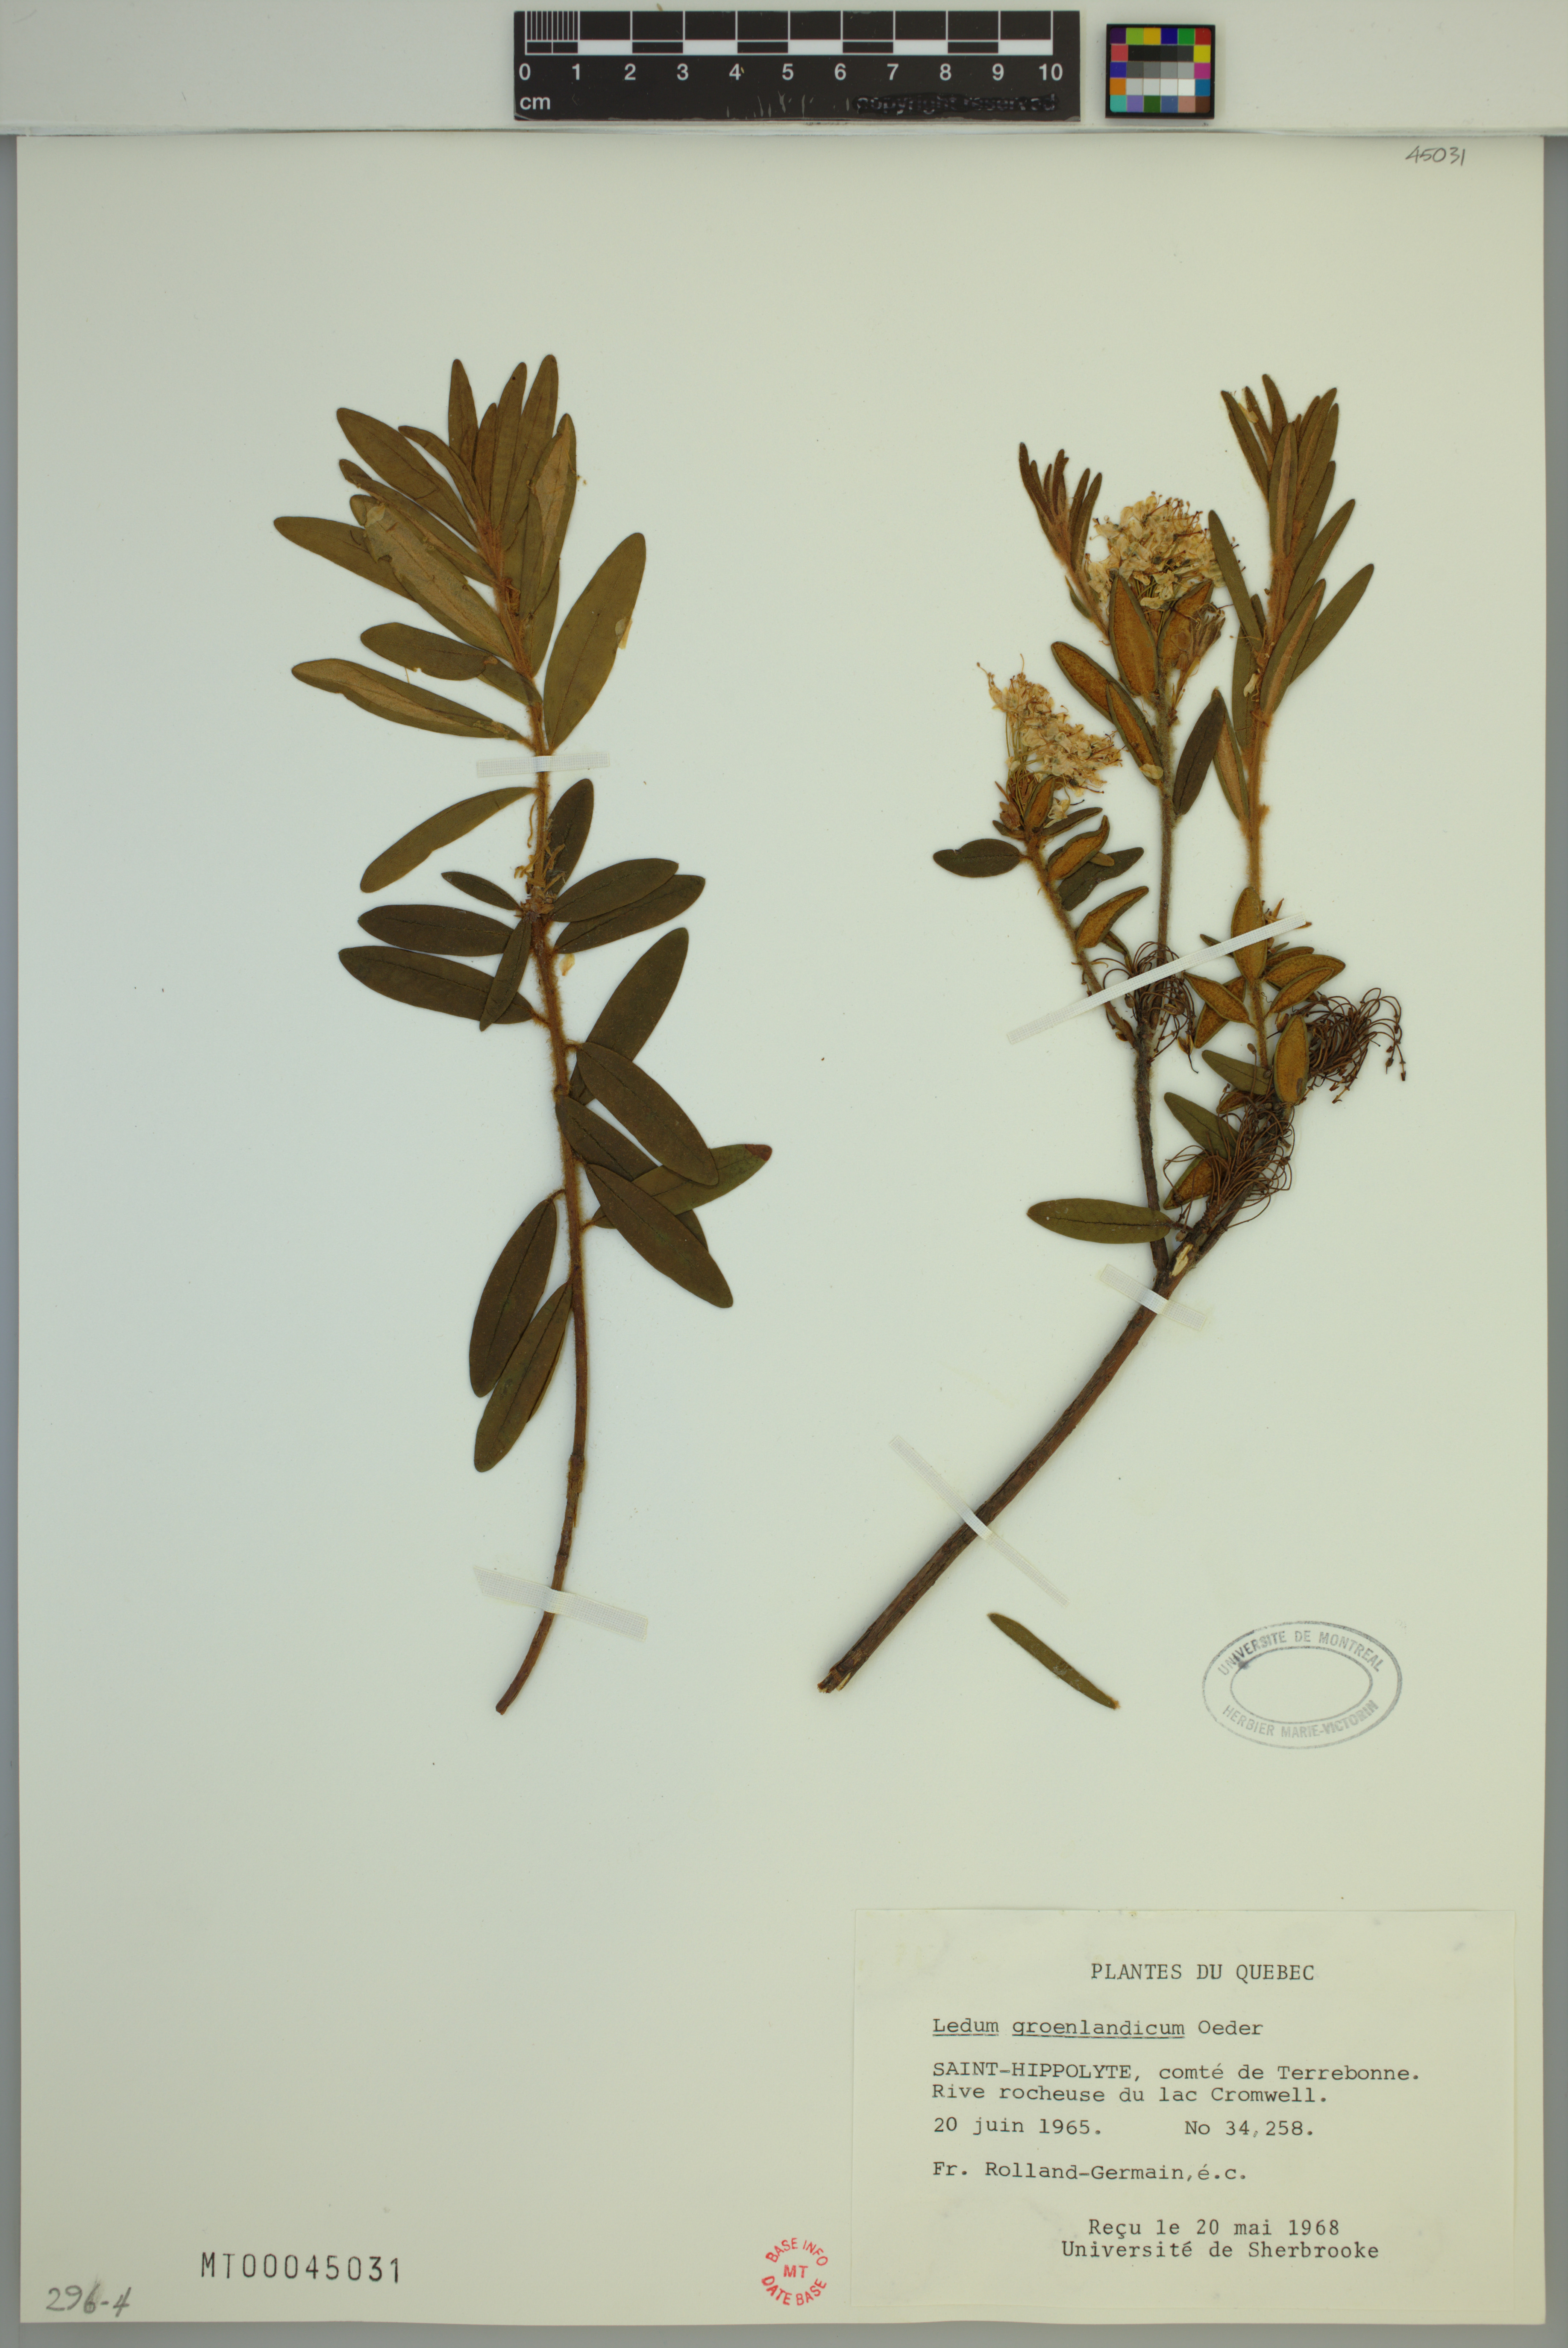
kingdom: Plantae
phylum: Tracheophyta
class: Magnoliopsida
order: Ericales
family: Ericaceae
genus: Rhododendron
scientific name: Rhododendron groenlandicum
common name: Bog labrador tea
